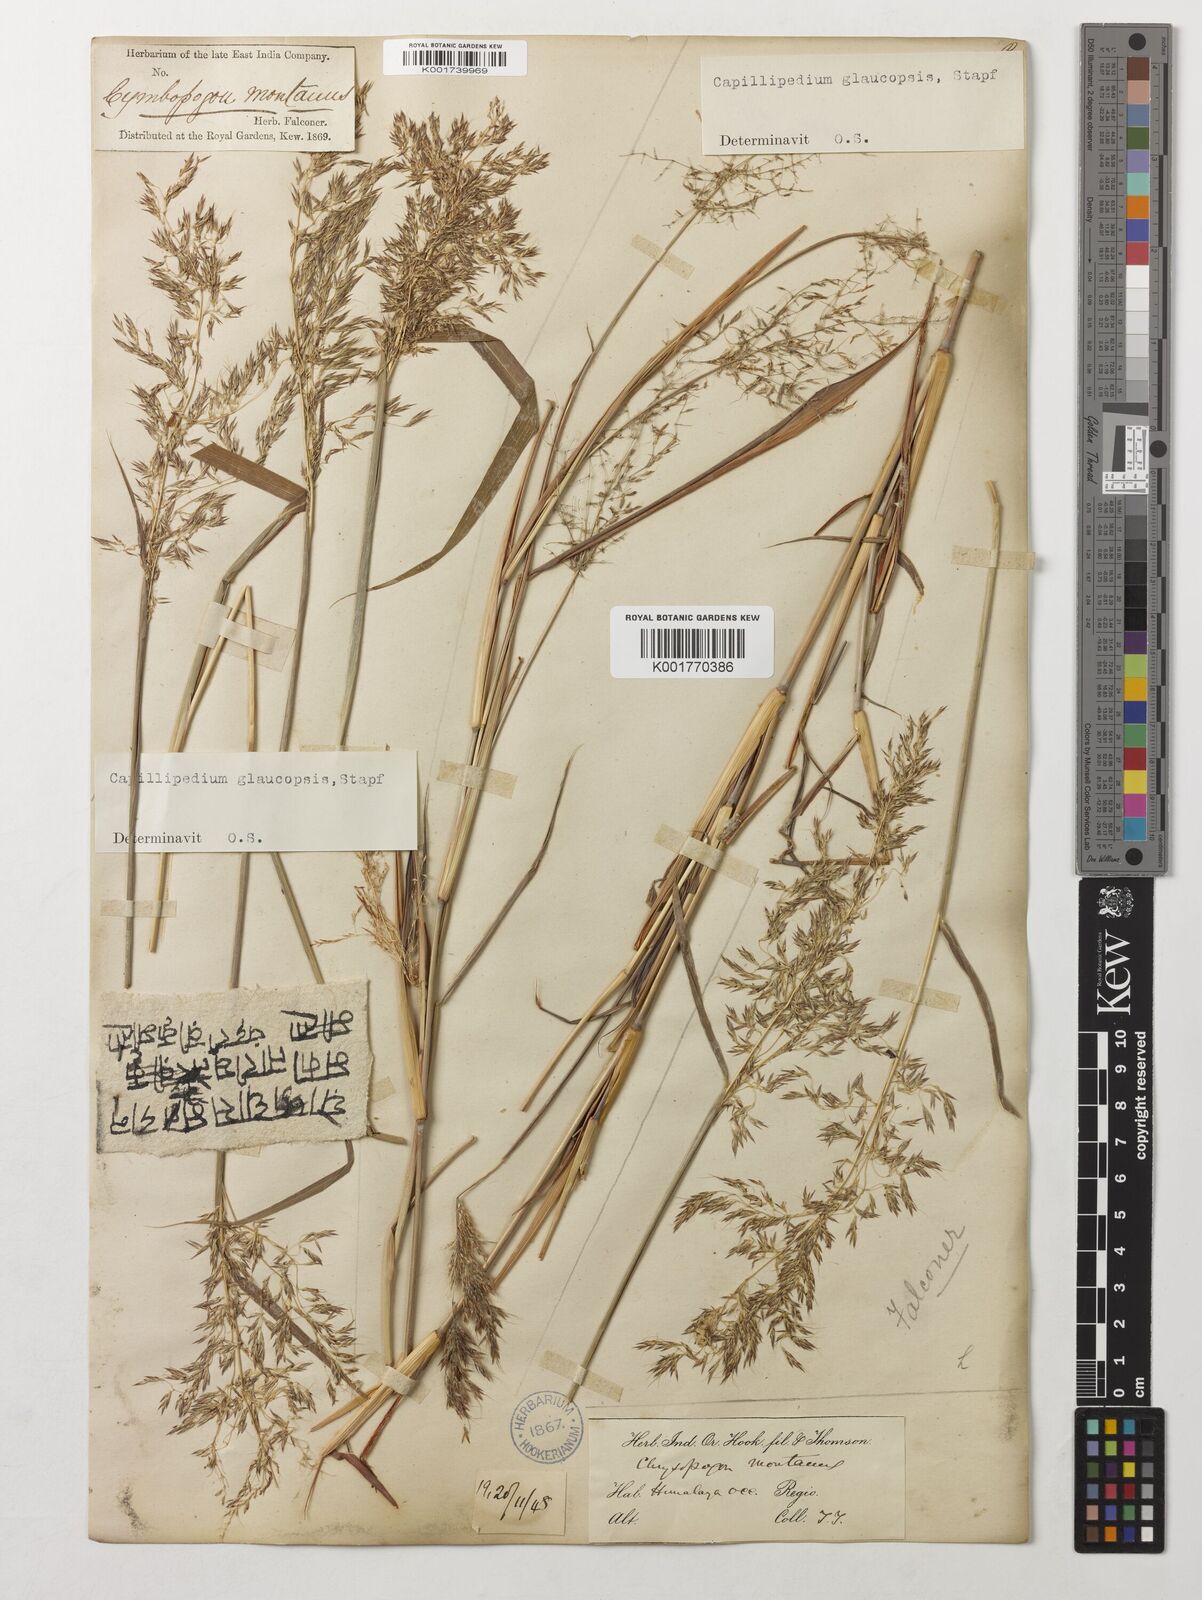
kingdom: Plantae
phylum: Tracheophyta
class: Liliopsida
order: Poales
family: Poaceae
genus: Capillipedium
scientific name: Capillipedium assimile
